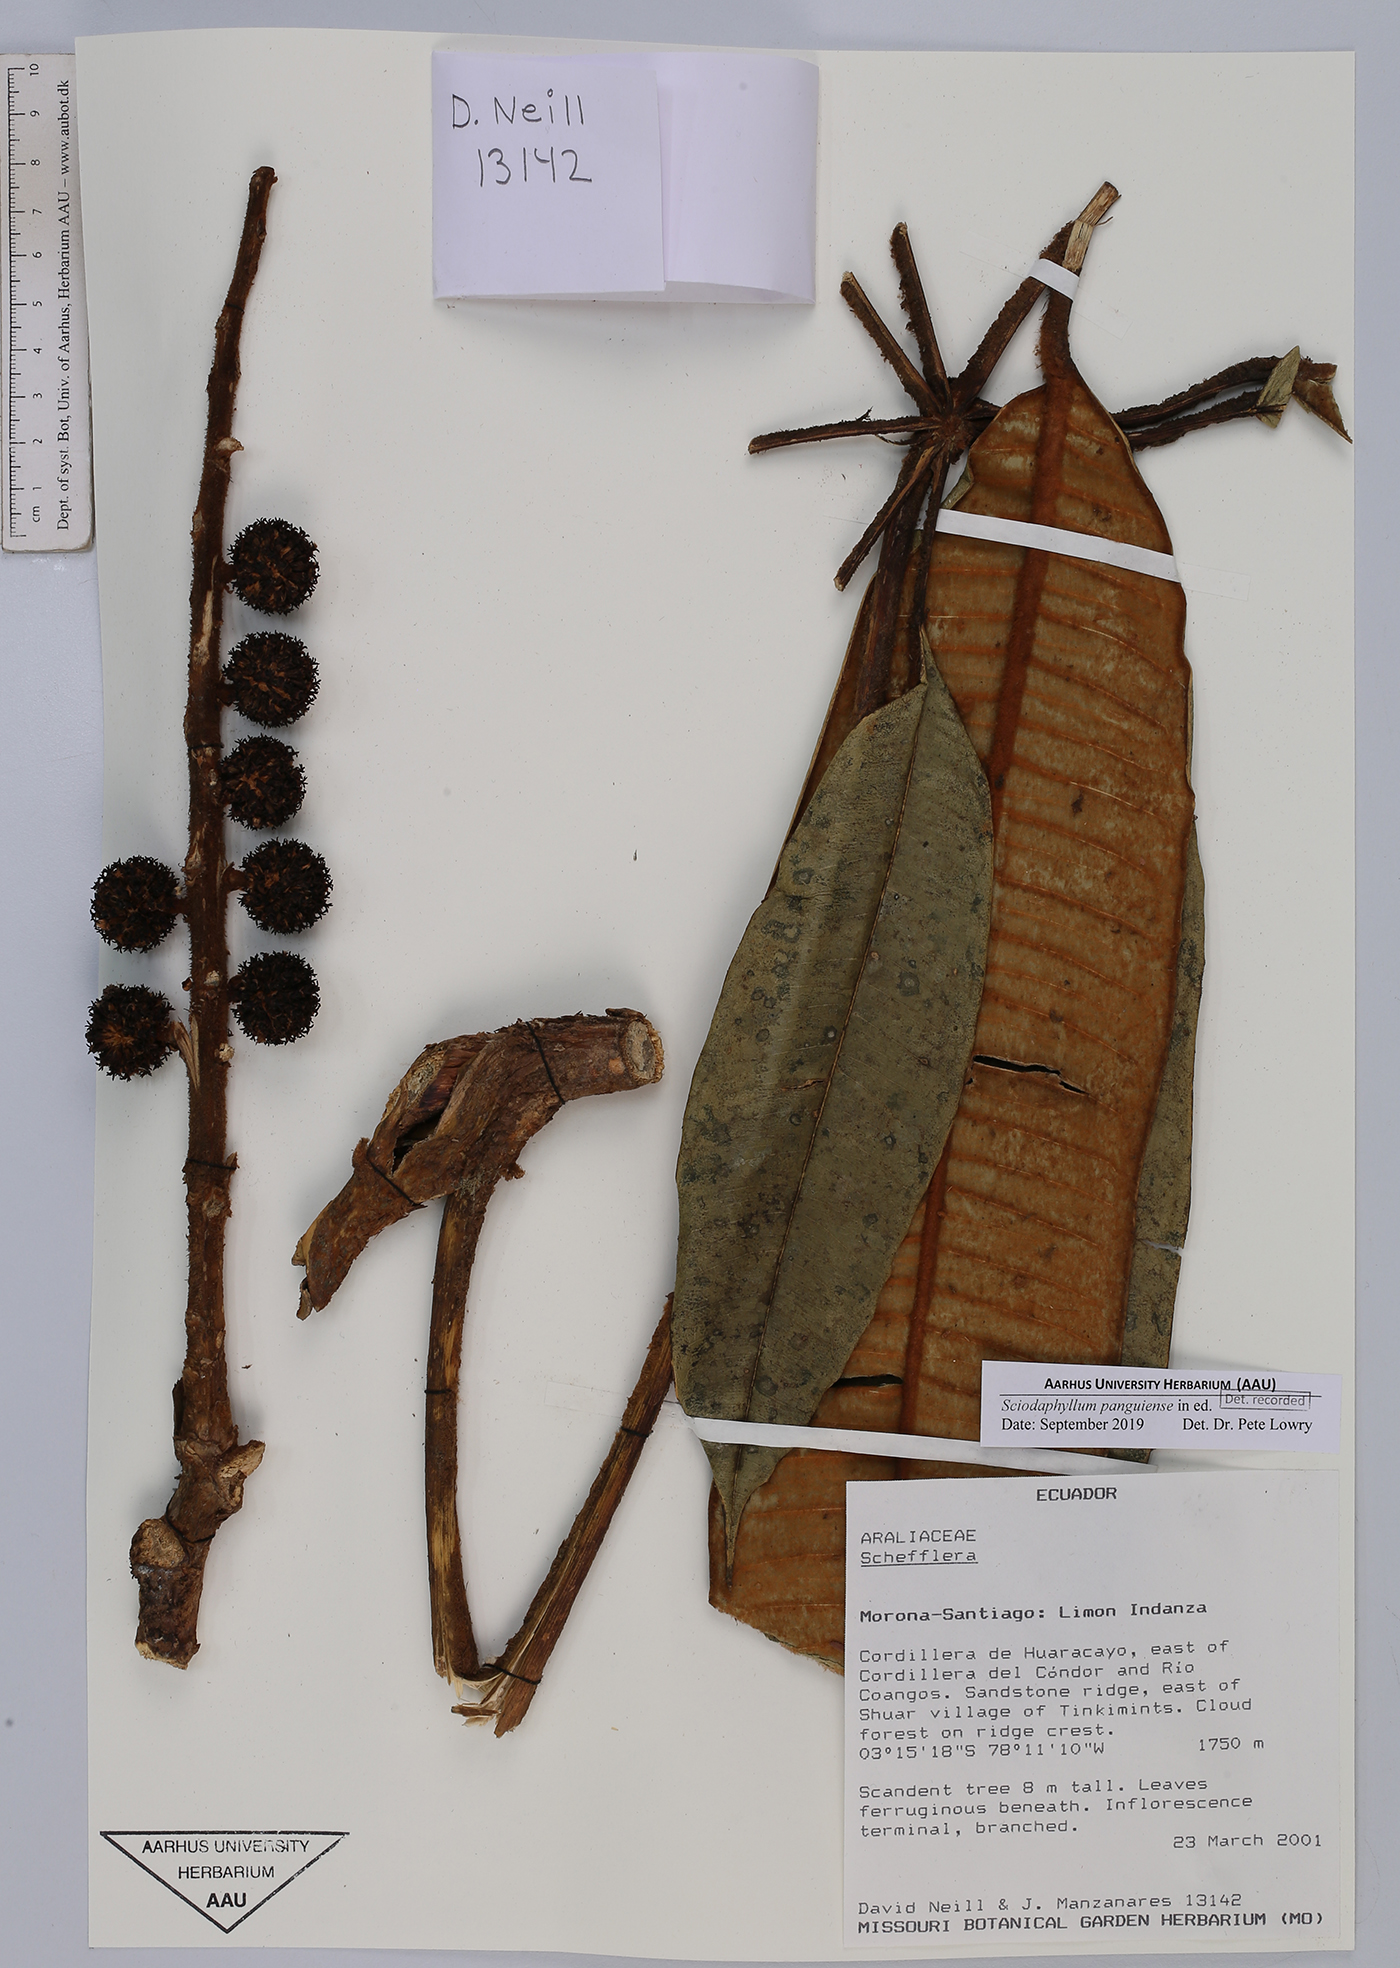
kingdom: Plantae
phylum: Tracheophyta
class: Magnoliopsida
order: Apiales
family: Araliaceae
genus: Sciodaphyllum
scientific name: Sciodaphyllum
